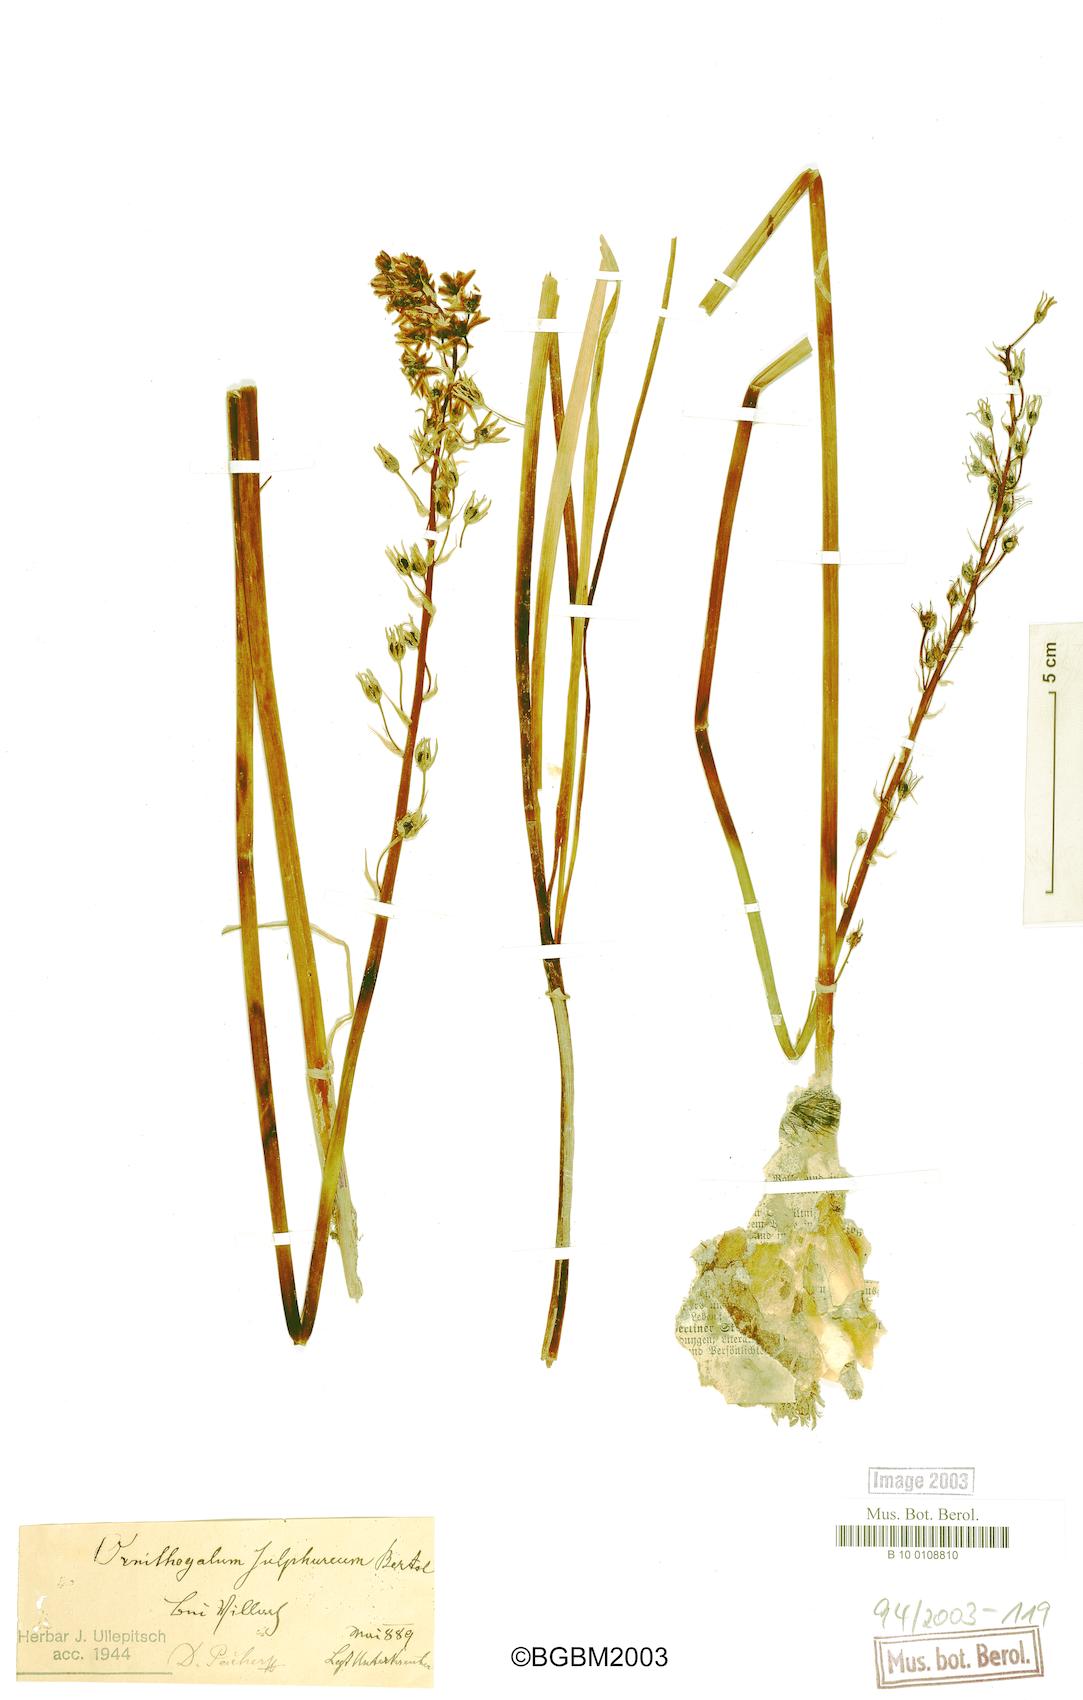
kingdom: Plantae
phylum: Tracheophyta
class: Liliopsida
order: Asparagales
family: Asparagaceae
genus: Ornithogalum
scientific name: Ornithogalum pyrenaicum
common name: Spiked star-of-bethlehem
